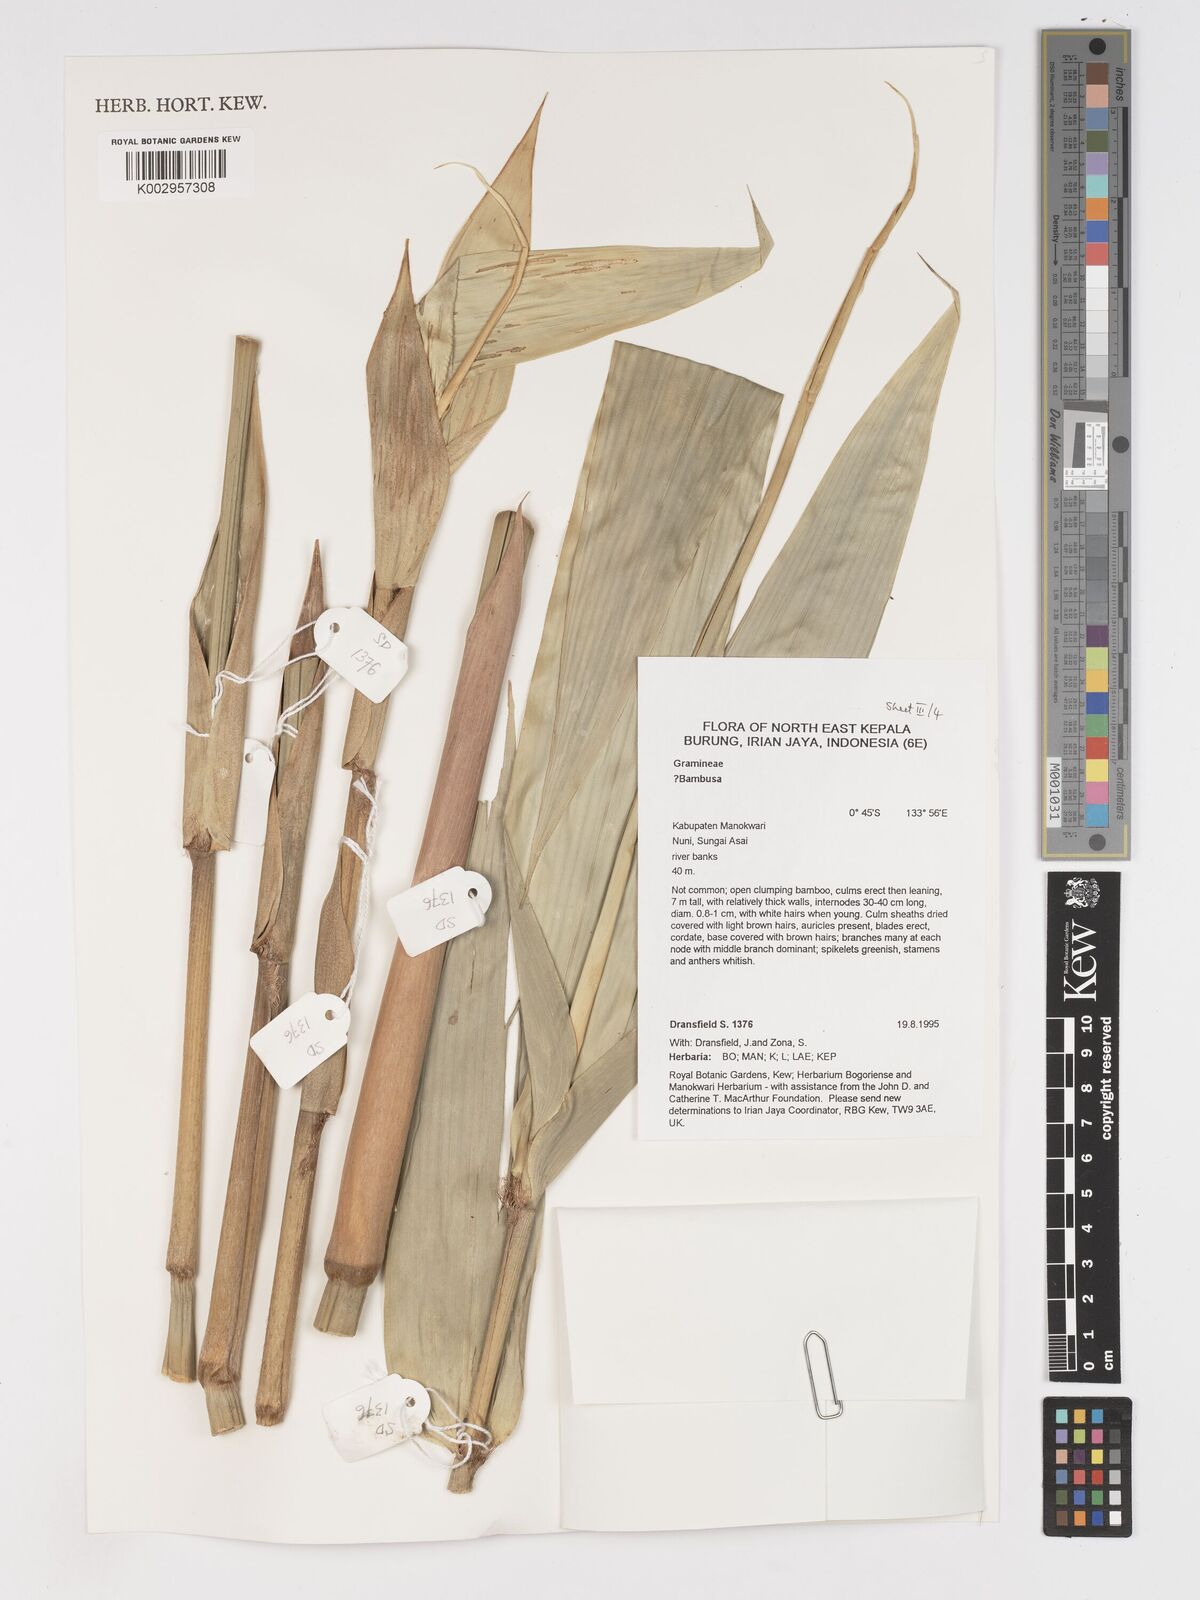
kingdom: Plantae
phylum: Tracheophyta
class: Liliopsida
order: Poales
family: Poaceae
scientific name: Poaceae
